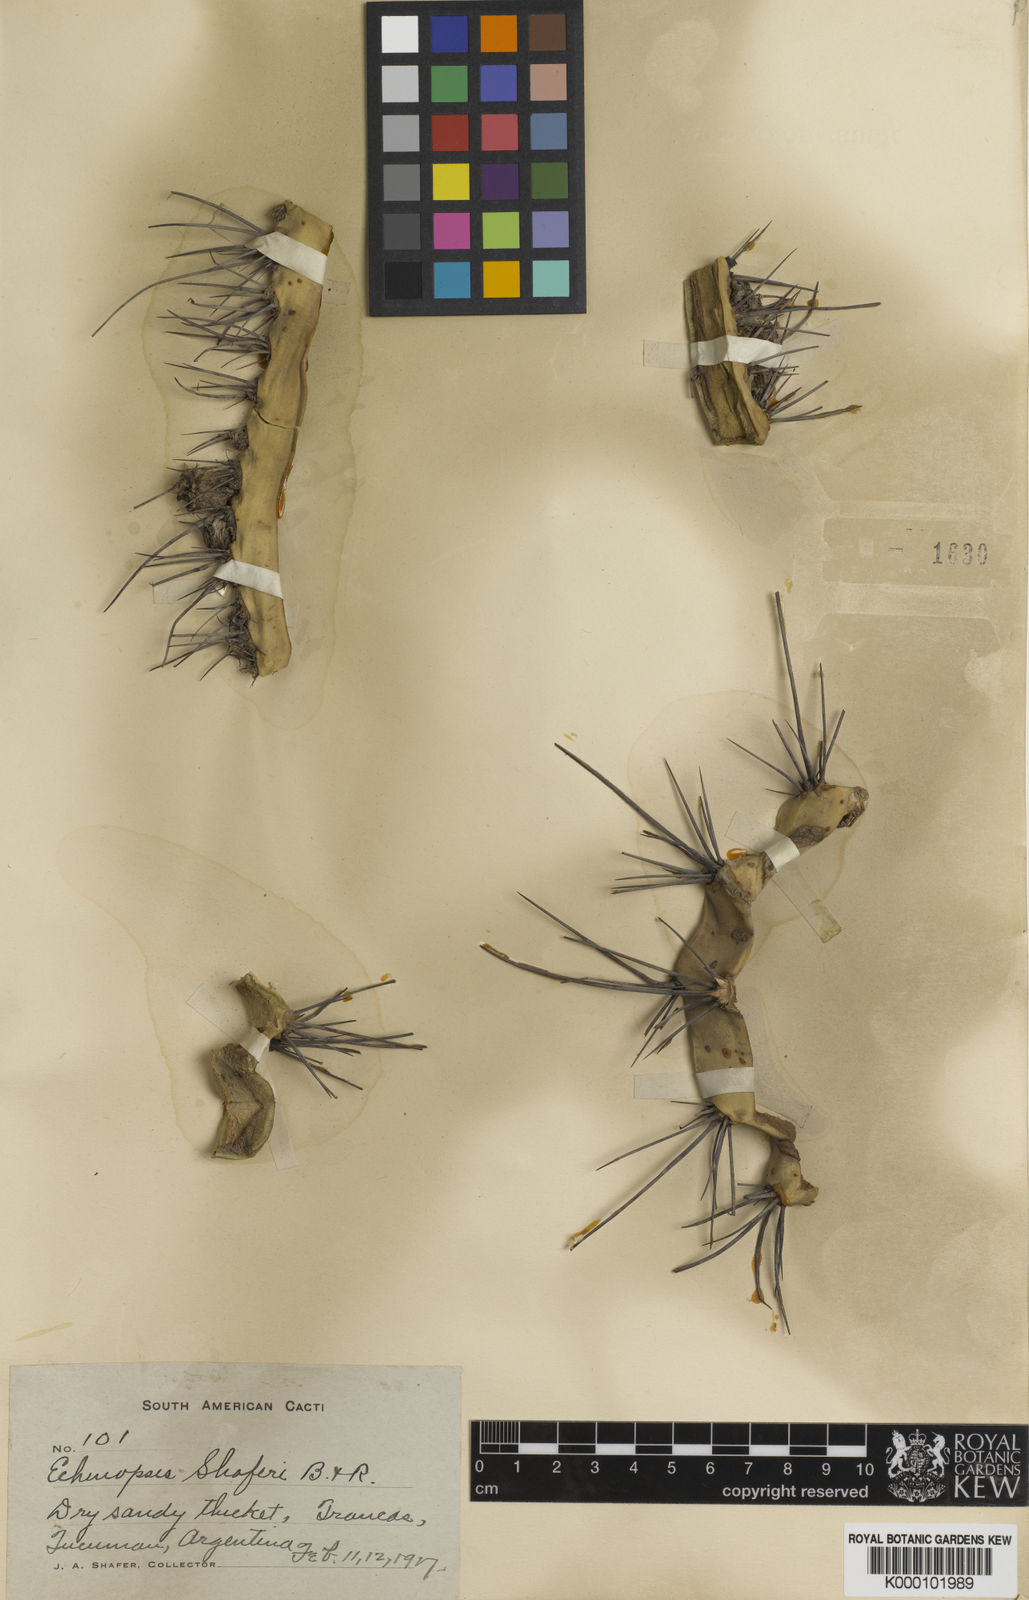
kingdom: Plantae
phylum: Tracheophyta
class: Magnoliopsida
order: Caryophyllales
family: Cactaceae
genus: Acanthocalycium
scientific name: Acanthocalycium leucanthum
